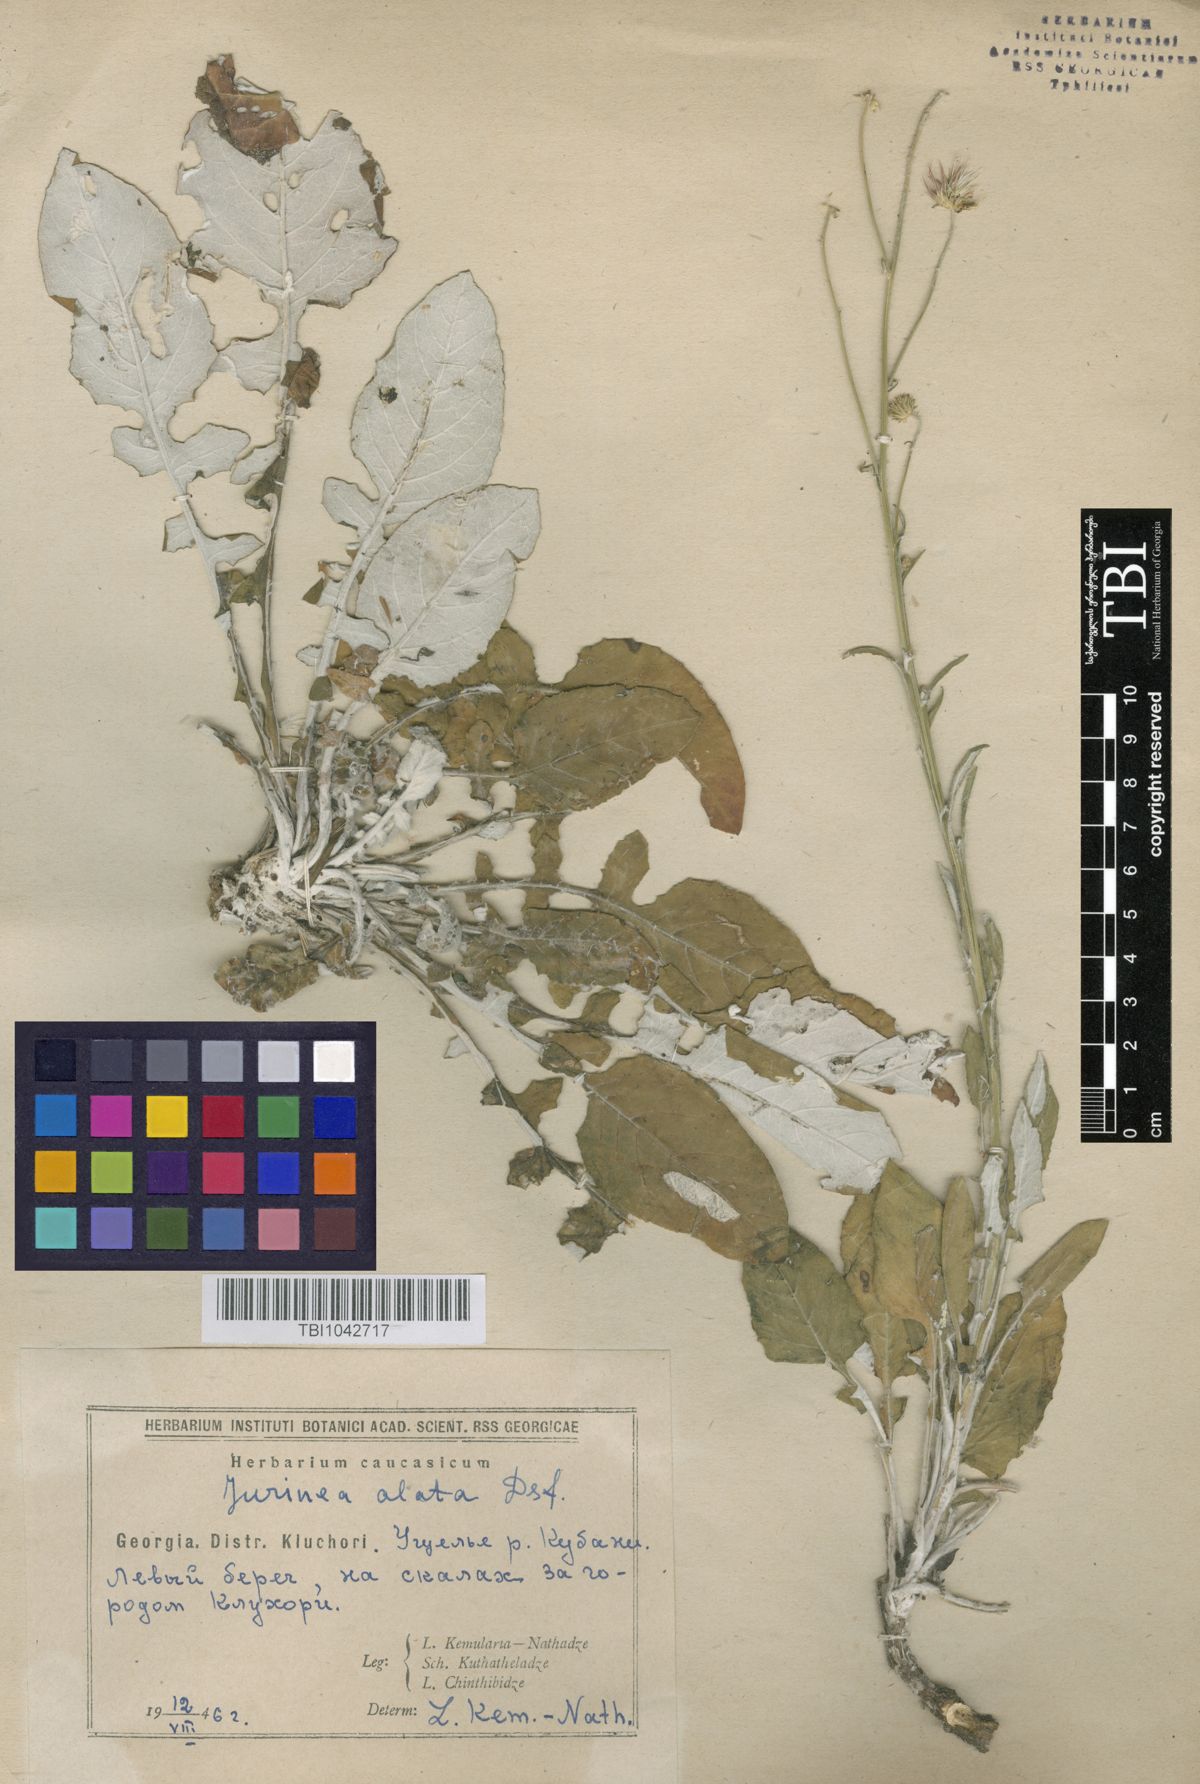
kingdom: Plantae
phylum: Tracheophyta
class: Magnoliopsida
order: Asterales
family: Asteraceae
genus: Jurinea
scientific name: Jurinea alata
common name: Winged jurinea
